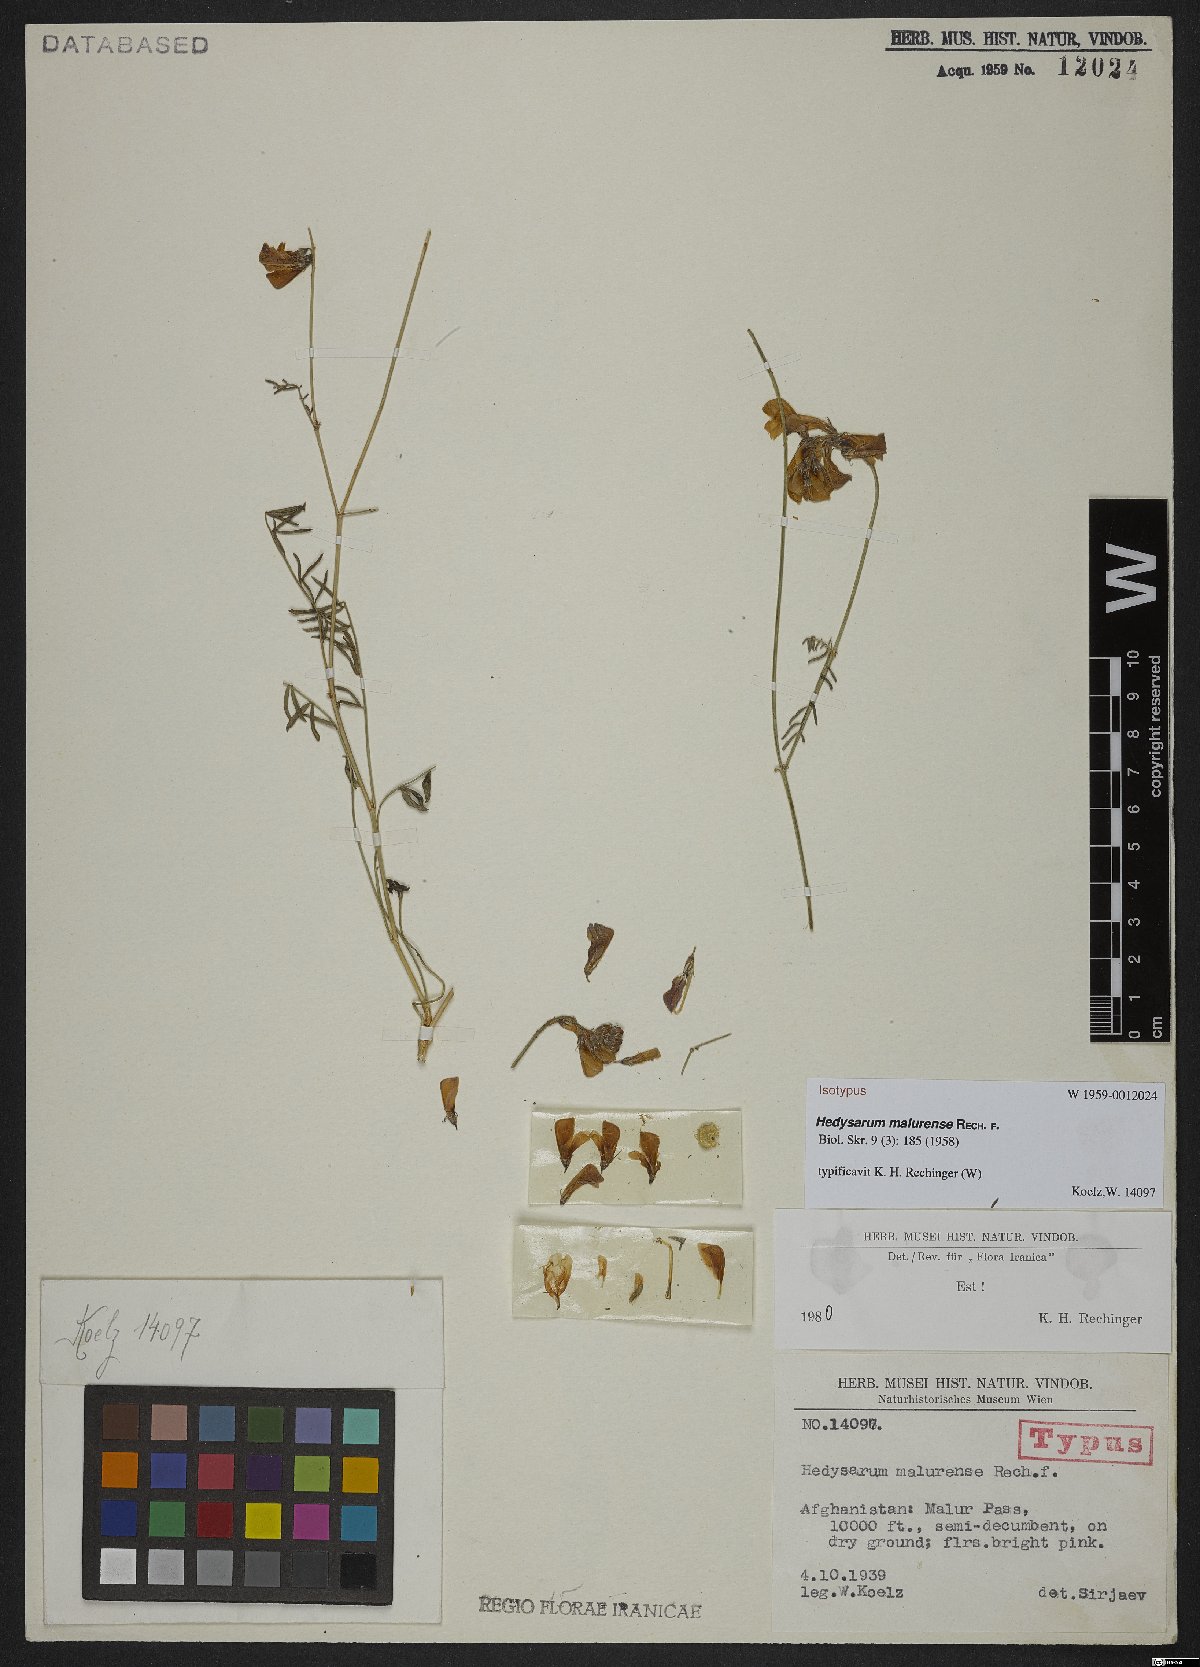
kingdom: Plantae
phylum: Tracheophyta
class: Magnoliopsida
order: Fabales
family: Fabaceae
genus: Hedysarum
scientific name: Hedysarum malurense
